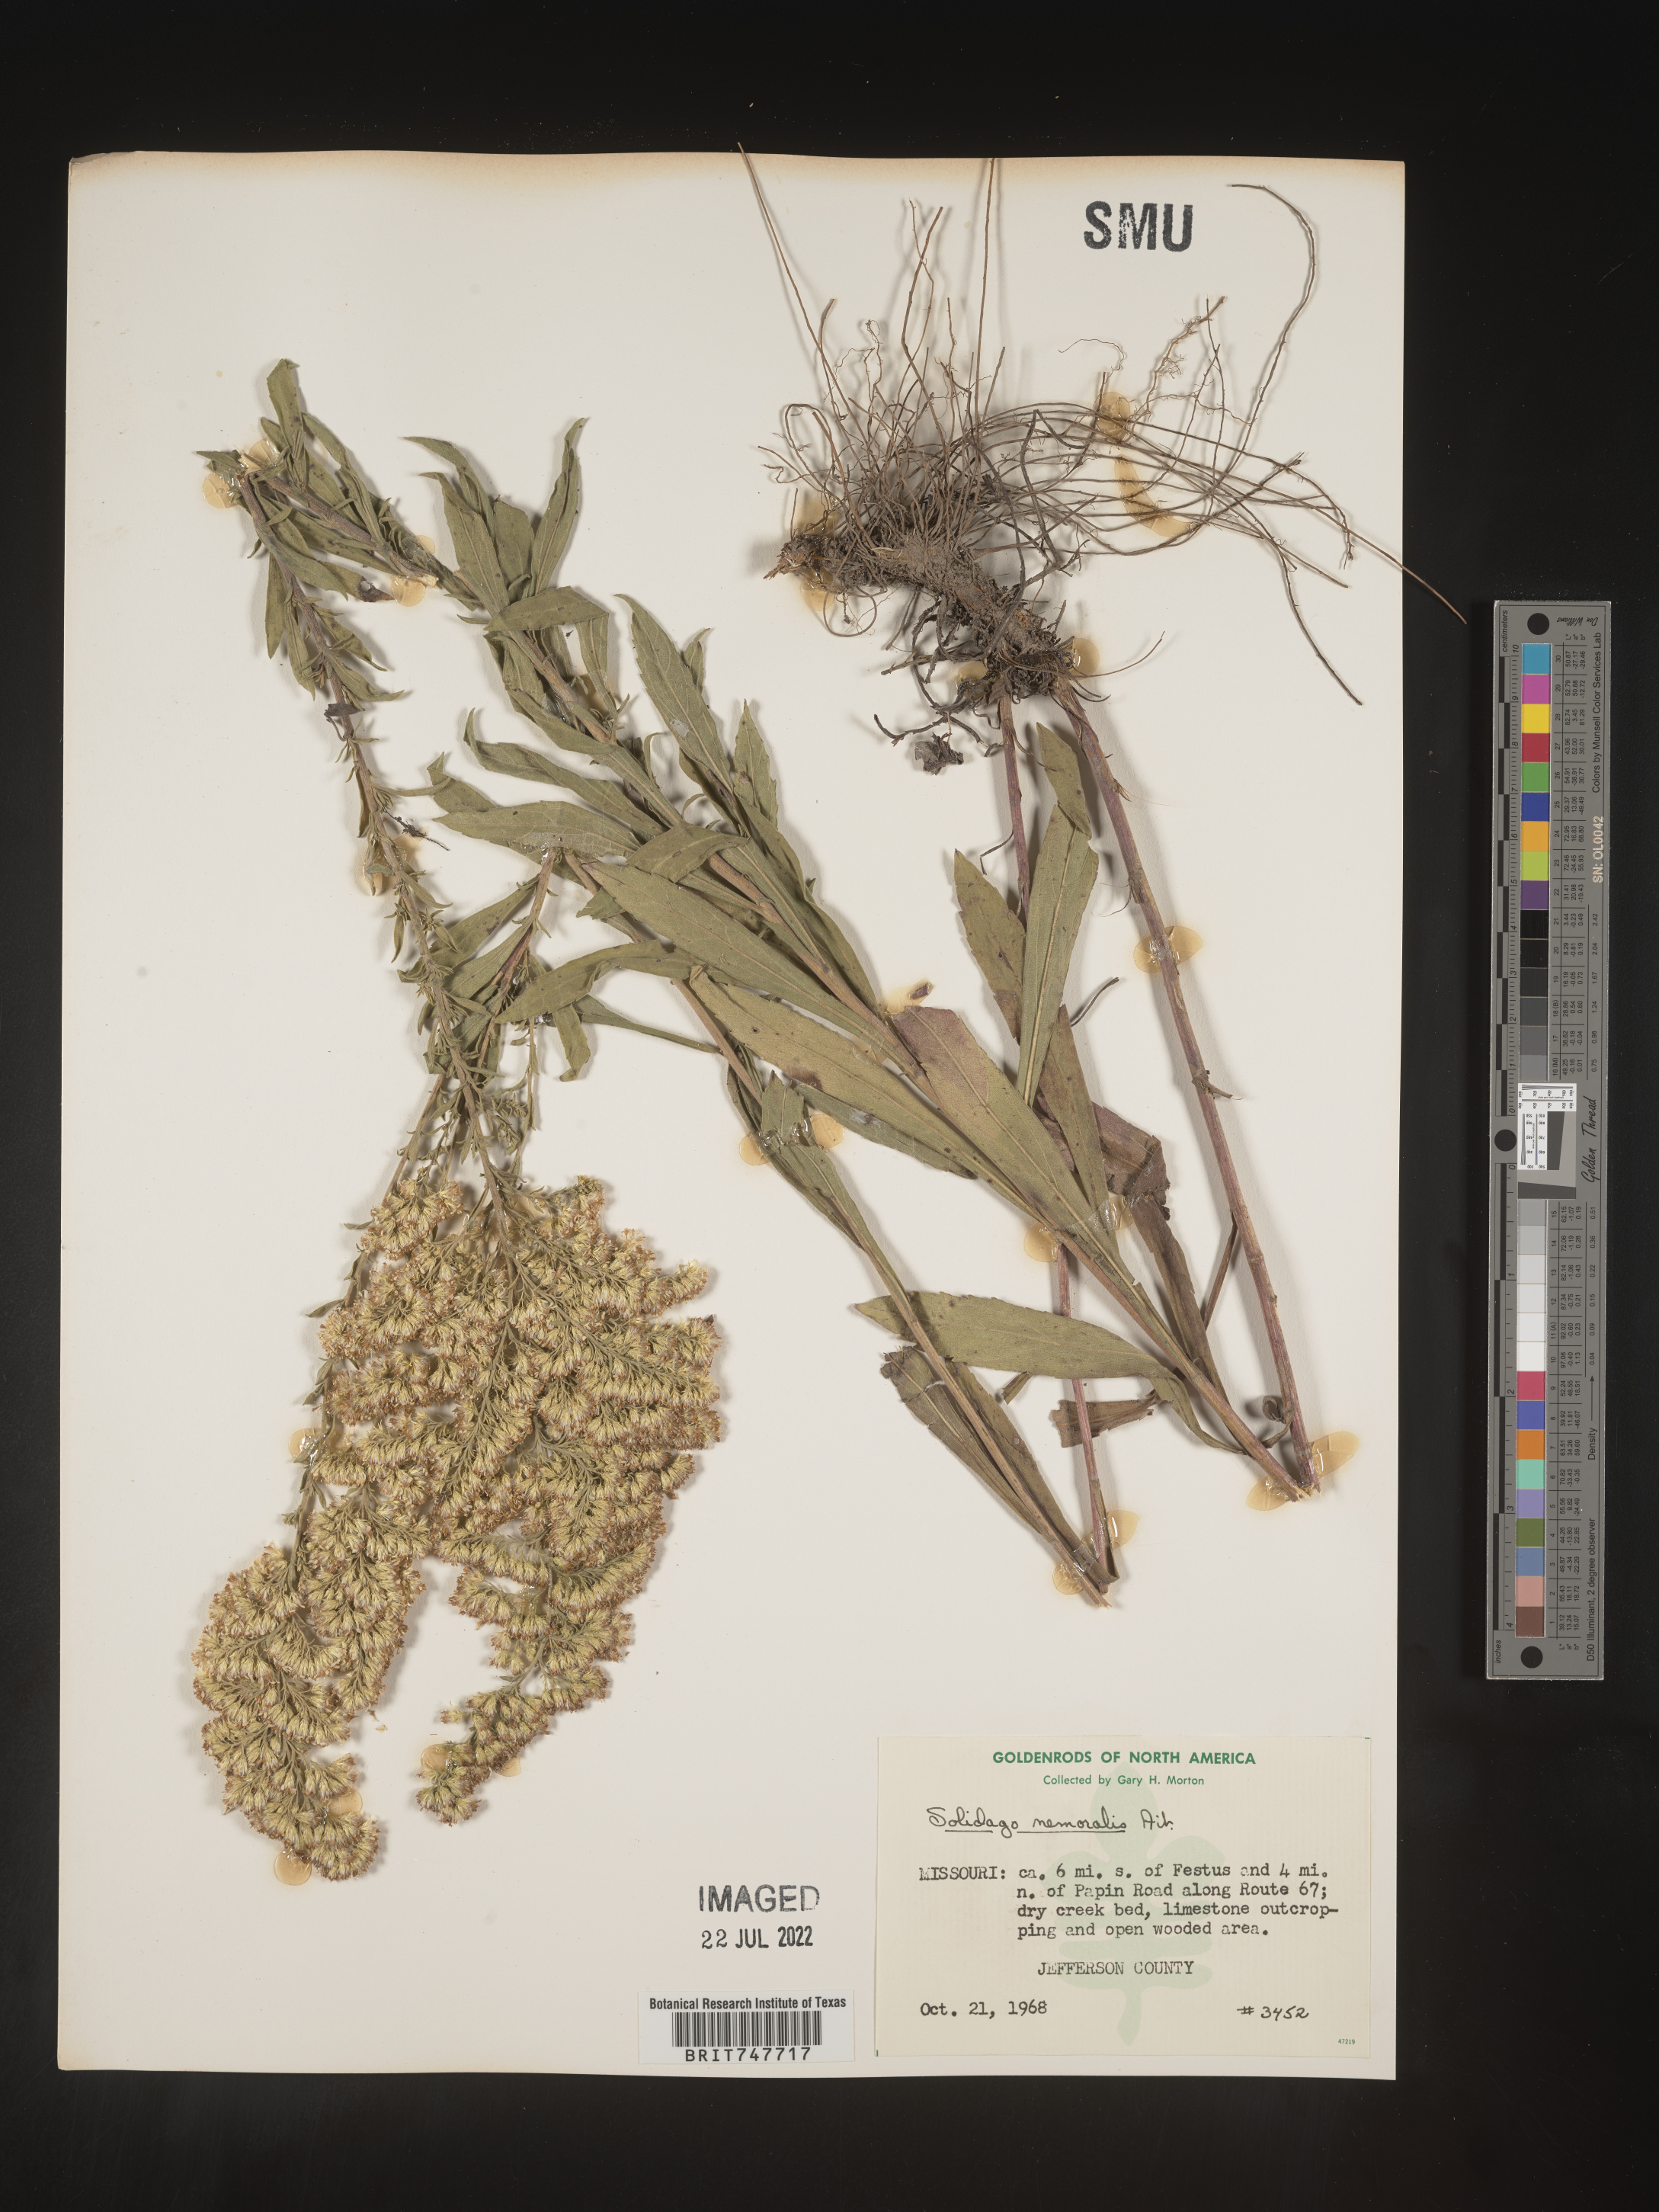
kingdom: Plantae
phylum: Tracheophyta
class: Magnoliopsida
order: Asterales
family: Asteraceae
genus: Solidago
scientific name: Solidago nemoralis
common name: Grey goldenrod
